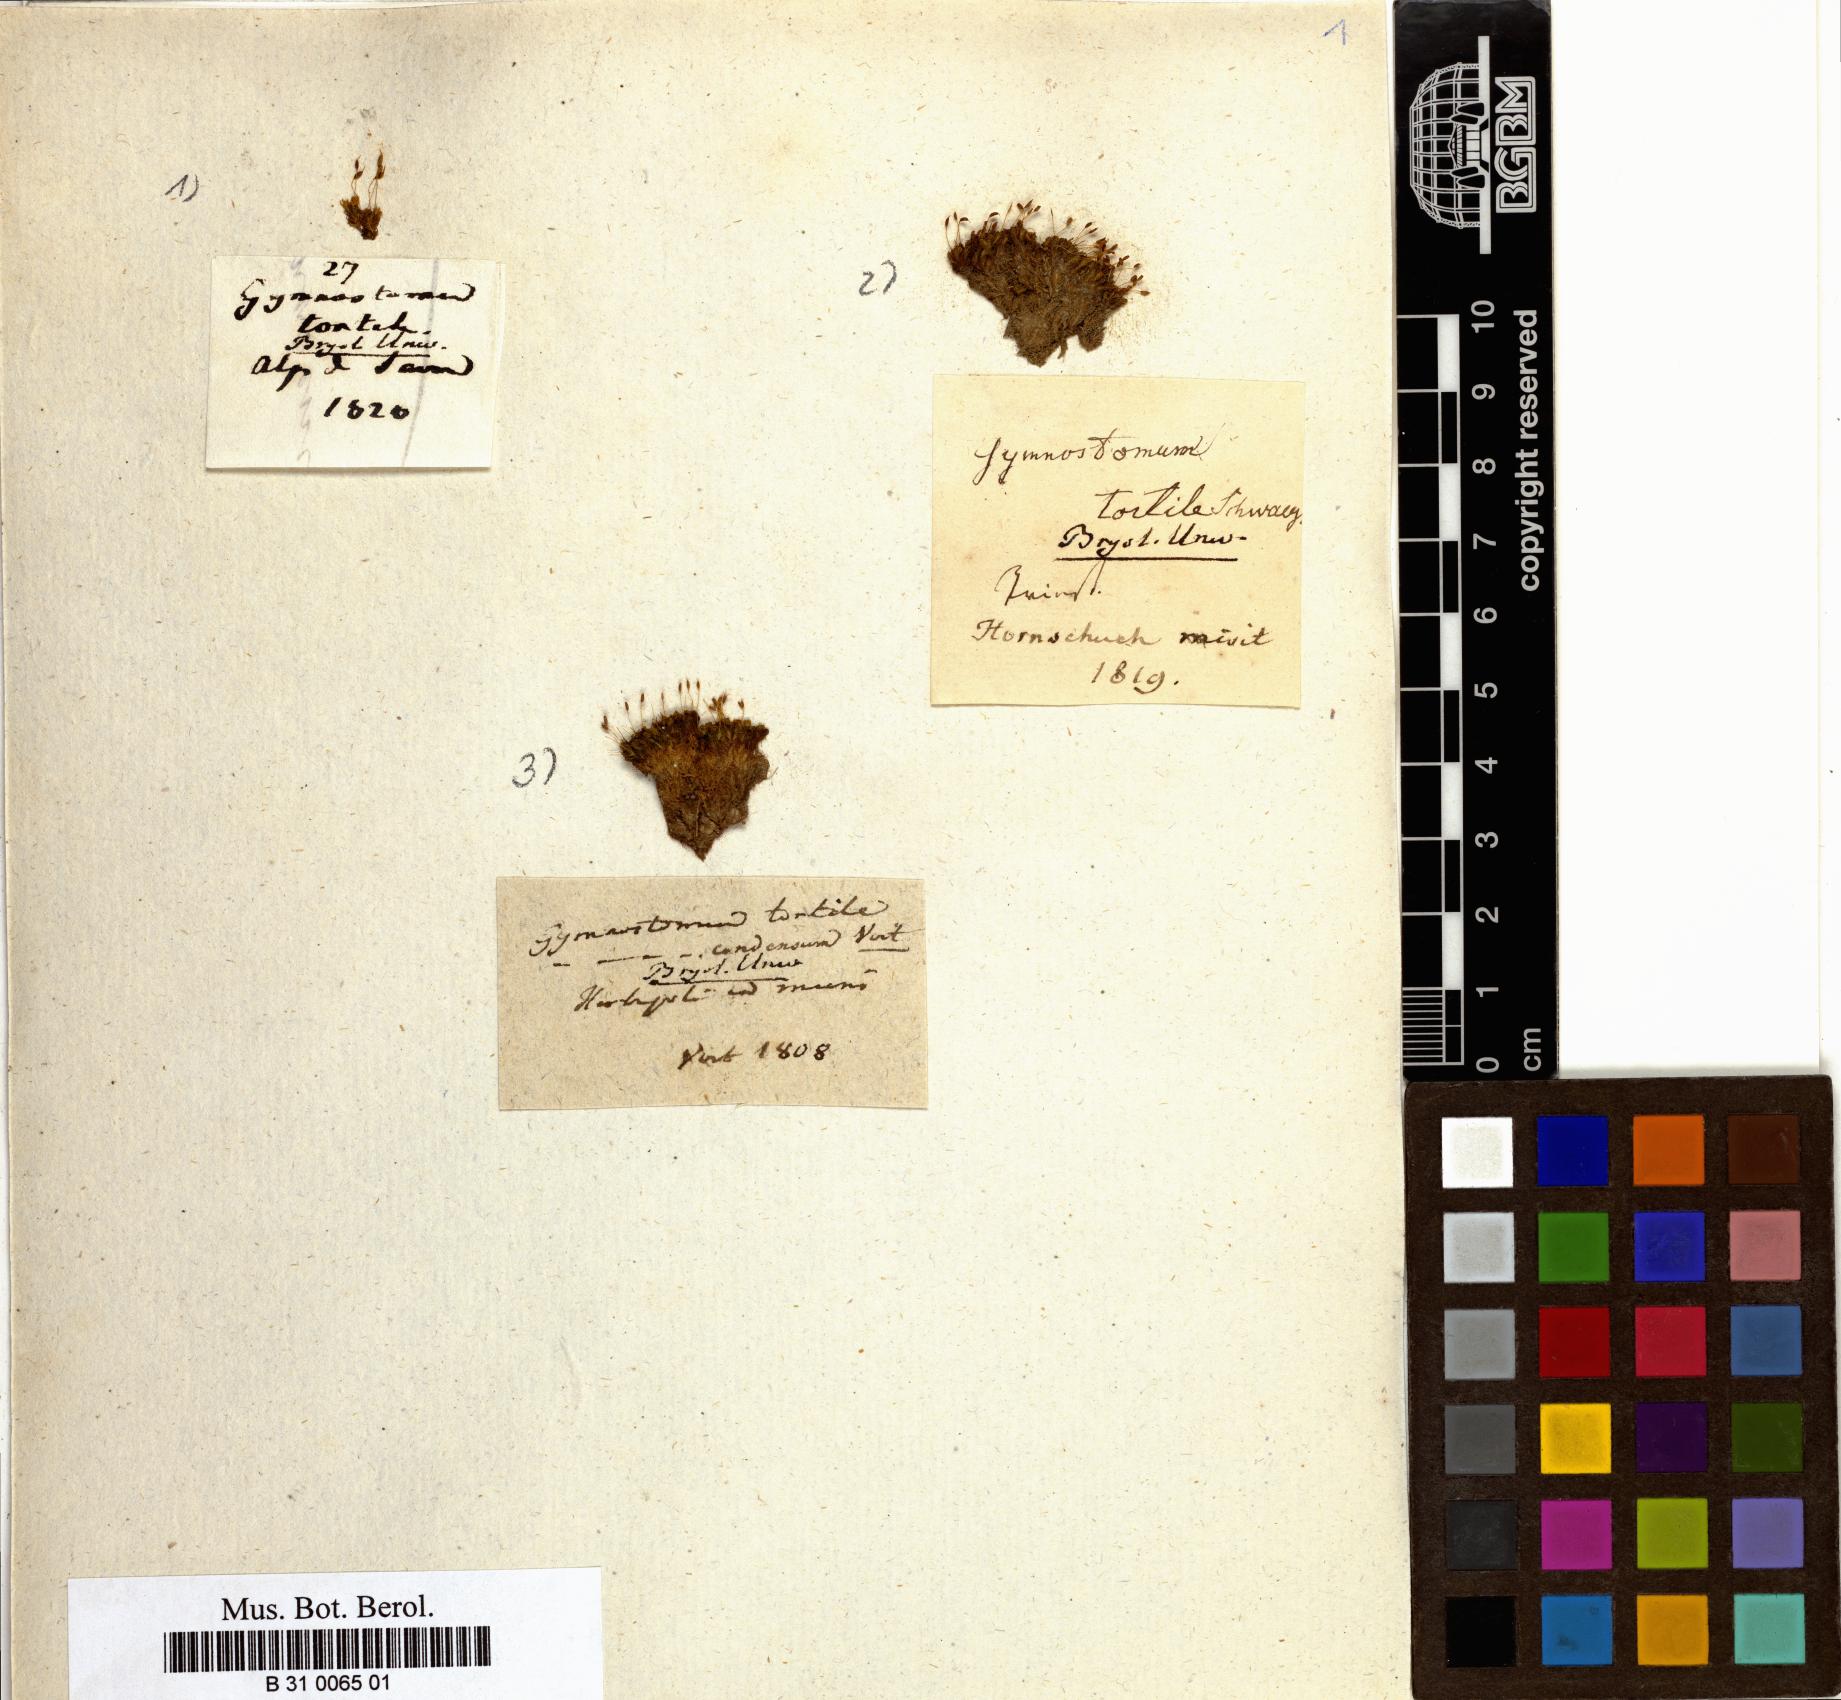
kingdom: Plantae
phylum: Bryophyta
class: Bryopsida
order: Pottiales
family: Pottiaceae
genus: Weissia
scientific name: Weissia condensa
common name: Curly beardless-moss
